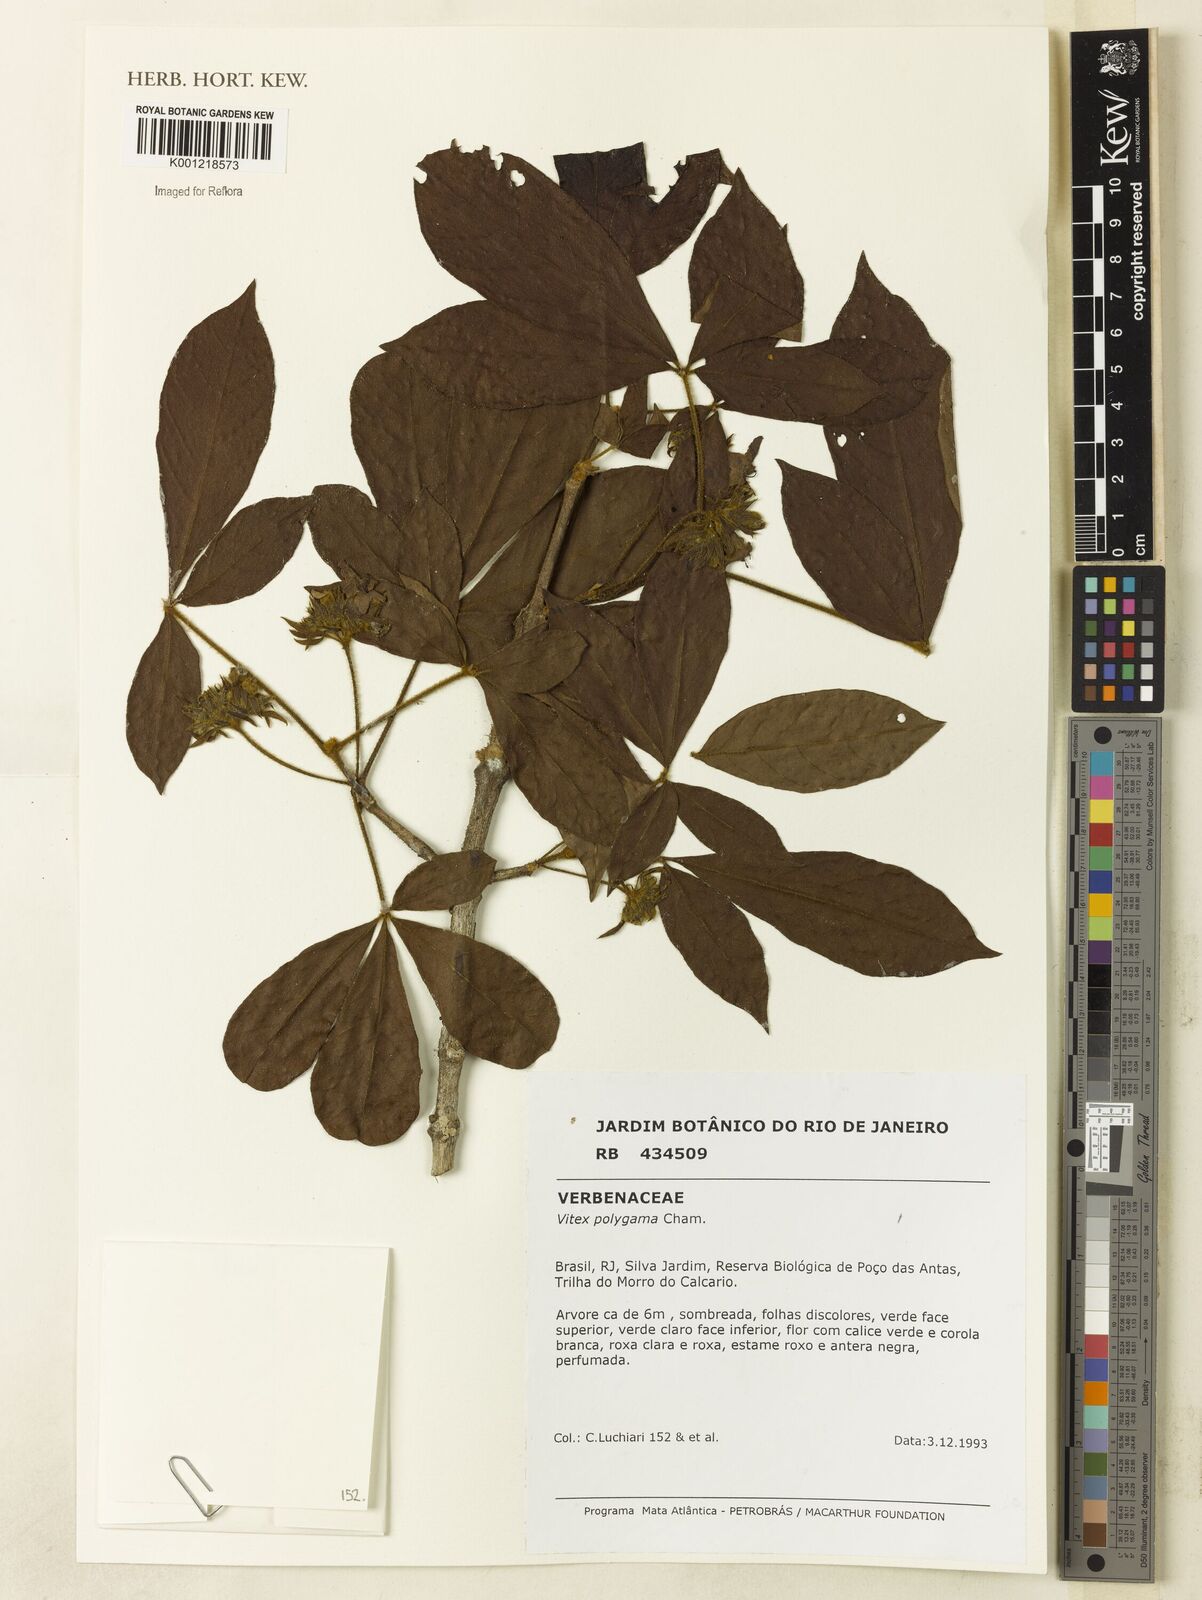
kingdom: Plantae
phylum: Tracheophyta
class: Magnoliopsida
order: Lamiales
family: Lamiaceae
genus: Vitex
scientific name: Vitex polygama
